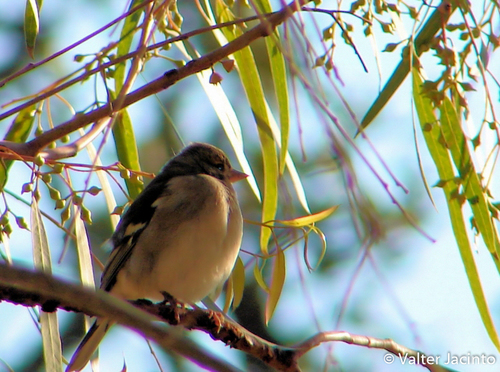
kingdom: Animalia
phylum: Chordata
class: Aves
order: Passeriformes
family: Fringillidae
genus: Fringilla
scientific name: Fringilla coelebs
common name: Common chaffinch
